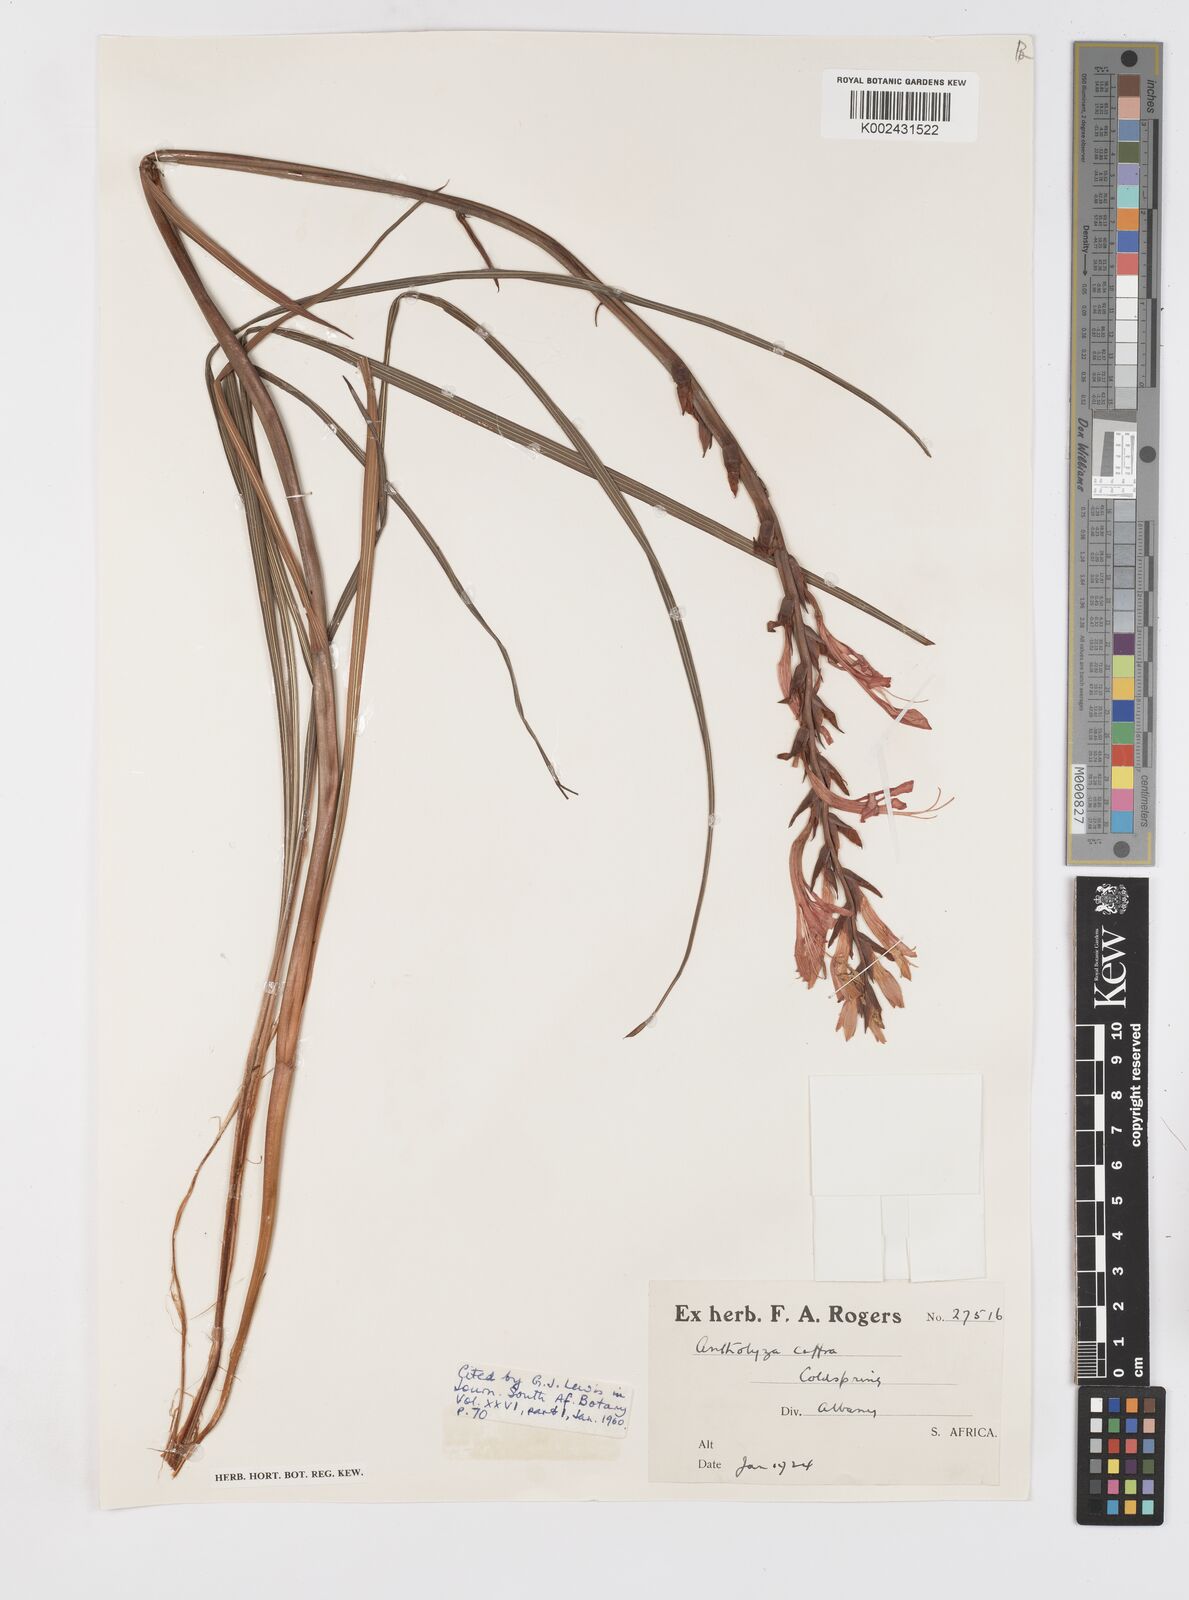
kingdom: Plantae
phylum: Tracheophyta
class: Liliopsida
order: Asparagales
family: Iridaceae
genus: Tritoniopsis
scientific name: Tritoniopsis caffra
